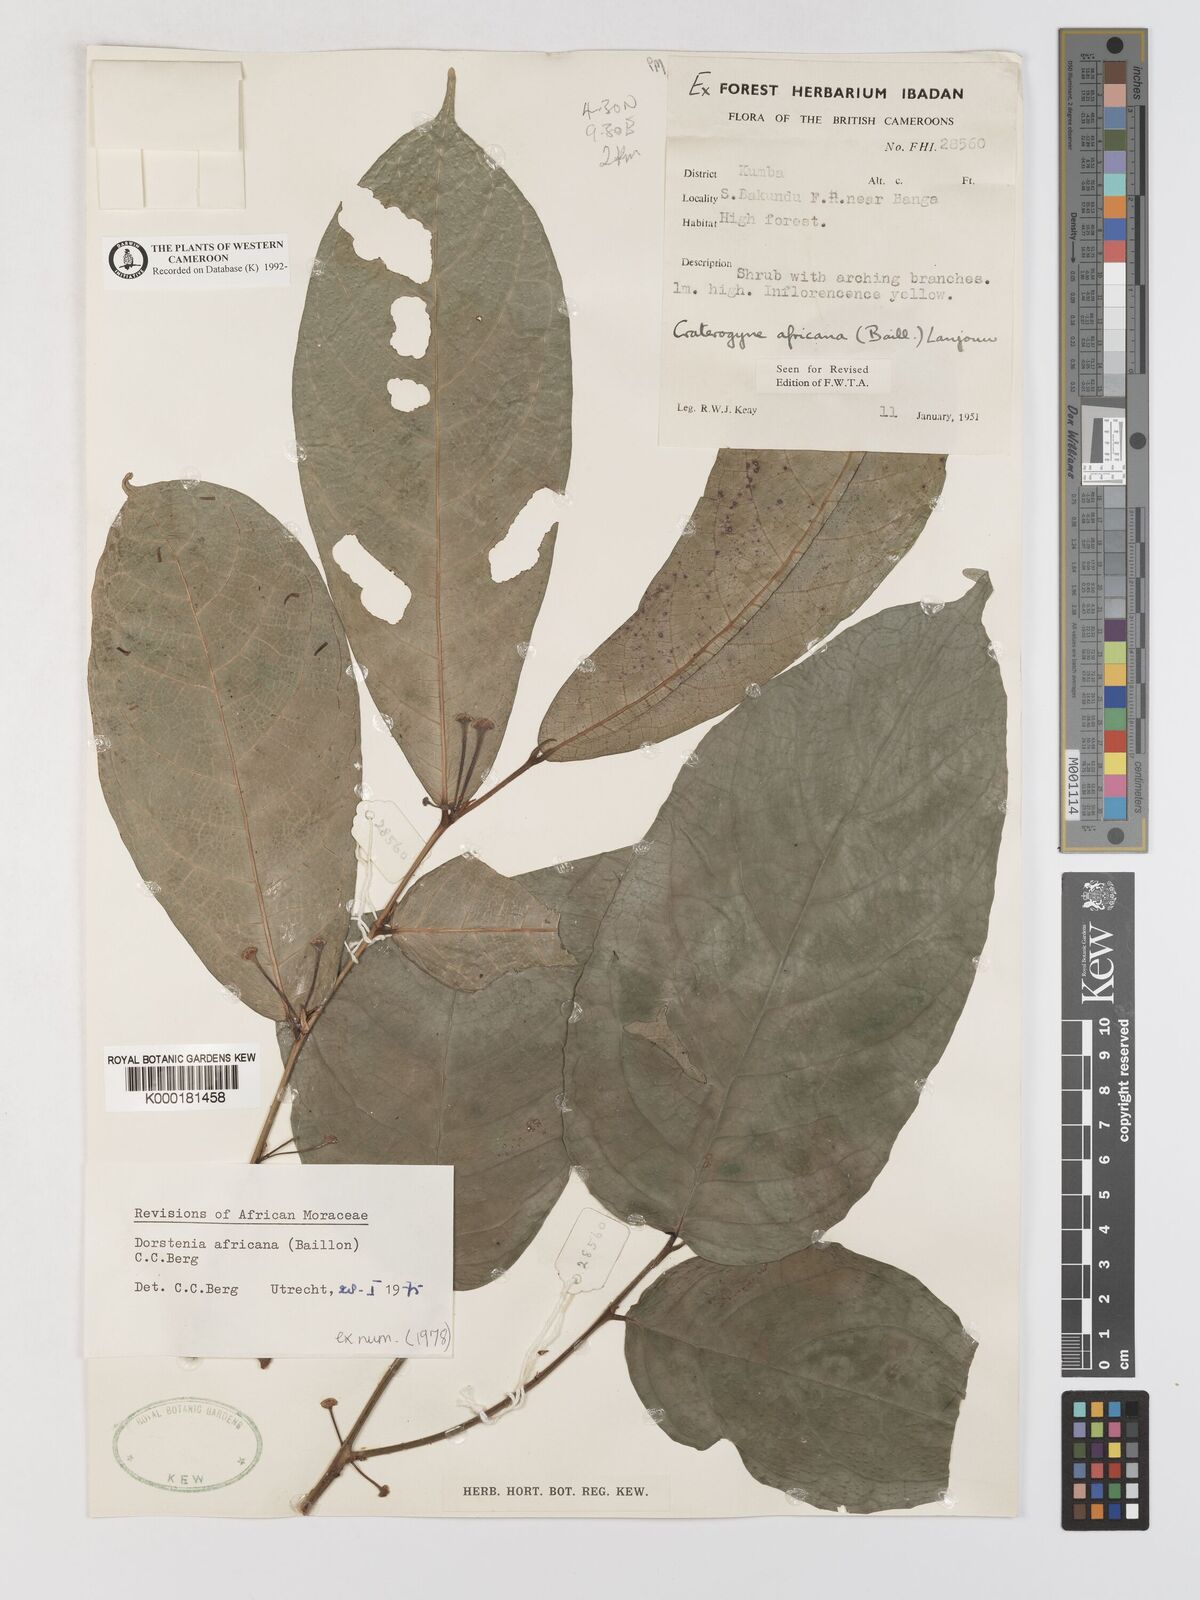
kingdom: Plantae
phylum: Tracheophyta
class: Magnoliopsida
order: Rosales
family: Moraceae
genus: Dorstenia
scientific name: Dorstenia africana
